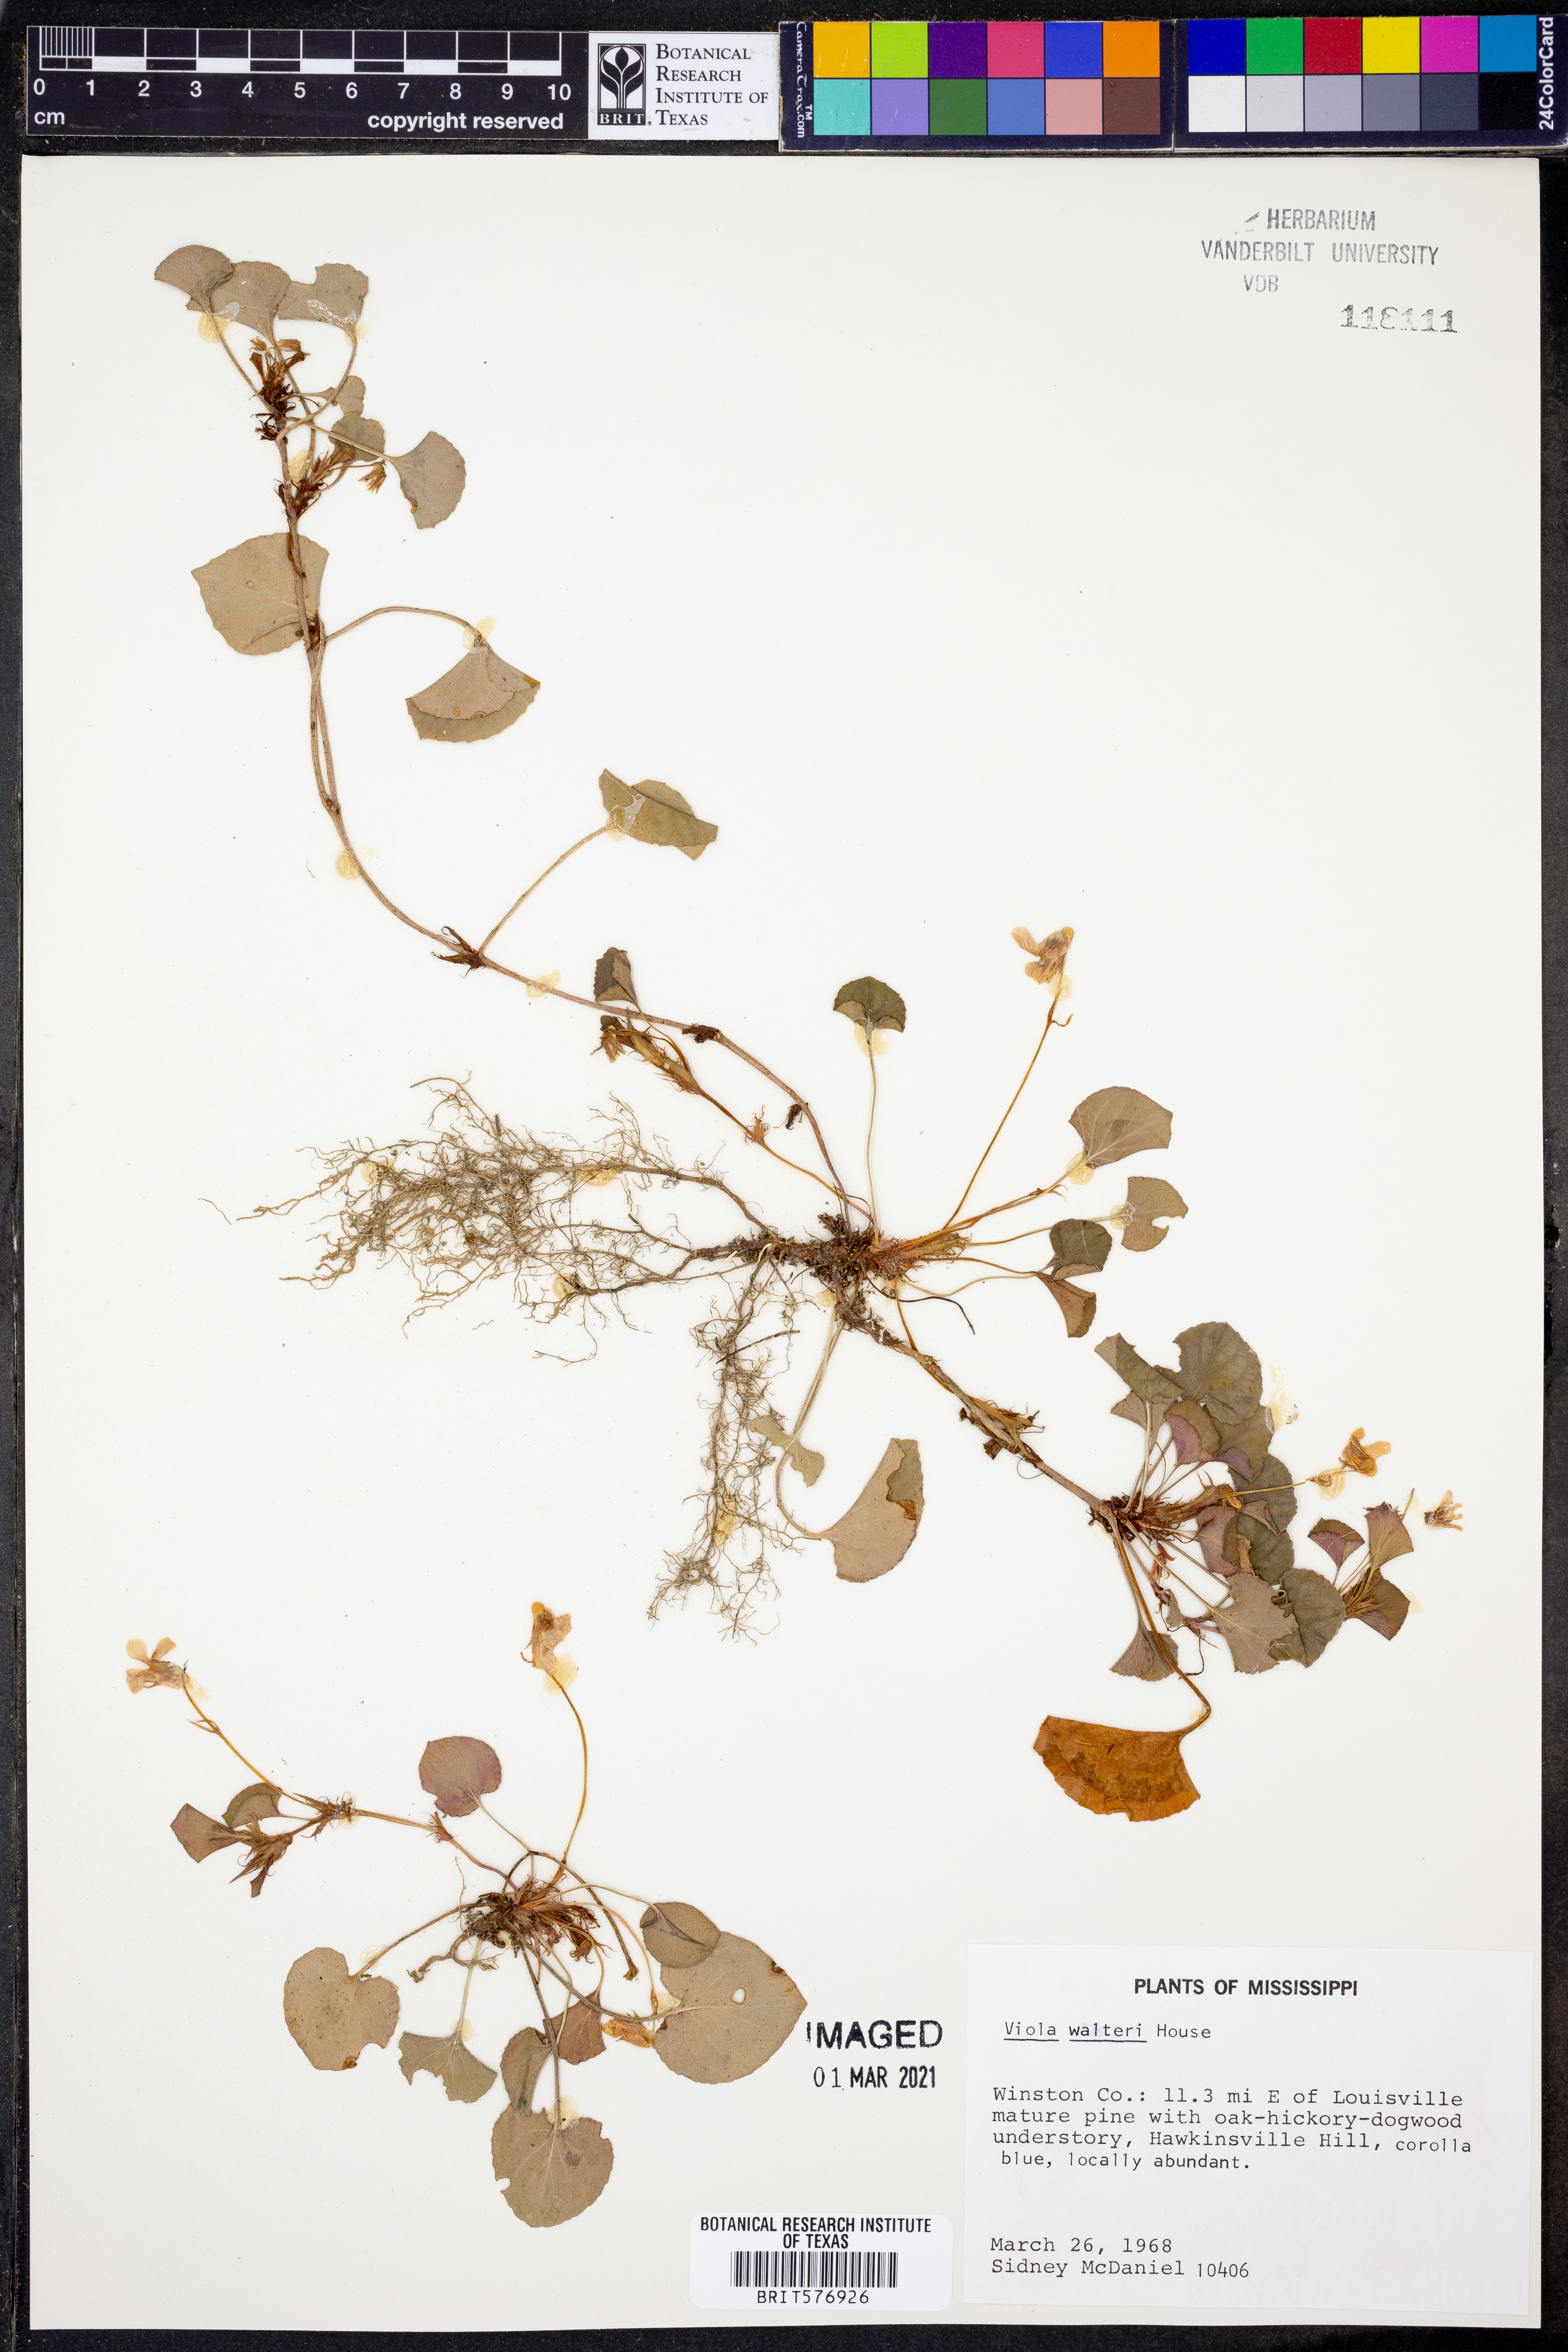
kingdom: Plantae
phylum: Tracheophyta
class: Magnoliopsida
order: Malpighiales
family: Violaceae
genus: Viola
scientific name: Viola walteri
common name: Prostrate southern violet
